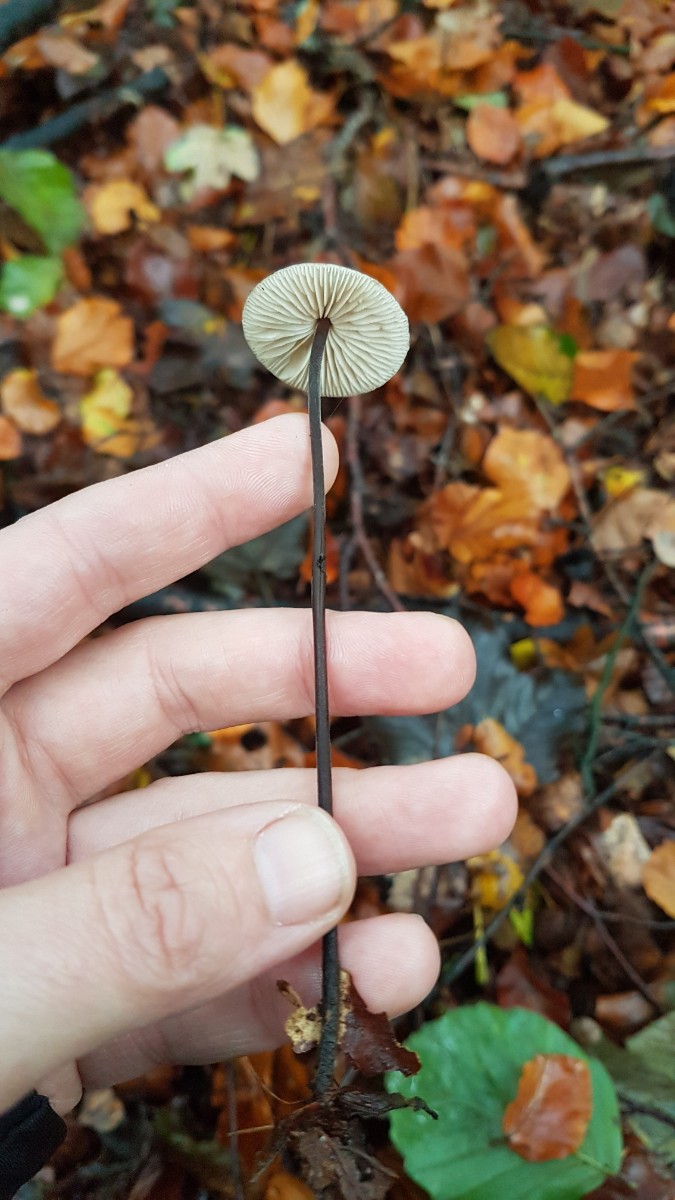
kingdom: Fungi
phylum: Basidiomycota
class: Agaricomycetes
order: Agaricales
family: Omphalotaceae
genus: Mycetinis
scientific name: Mycetinis alliaceus
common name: stor løghat
